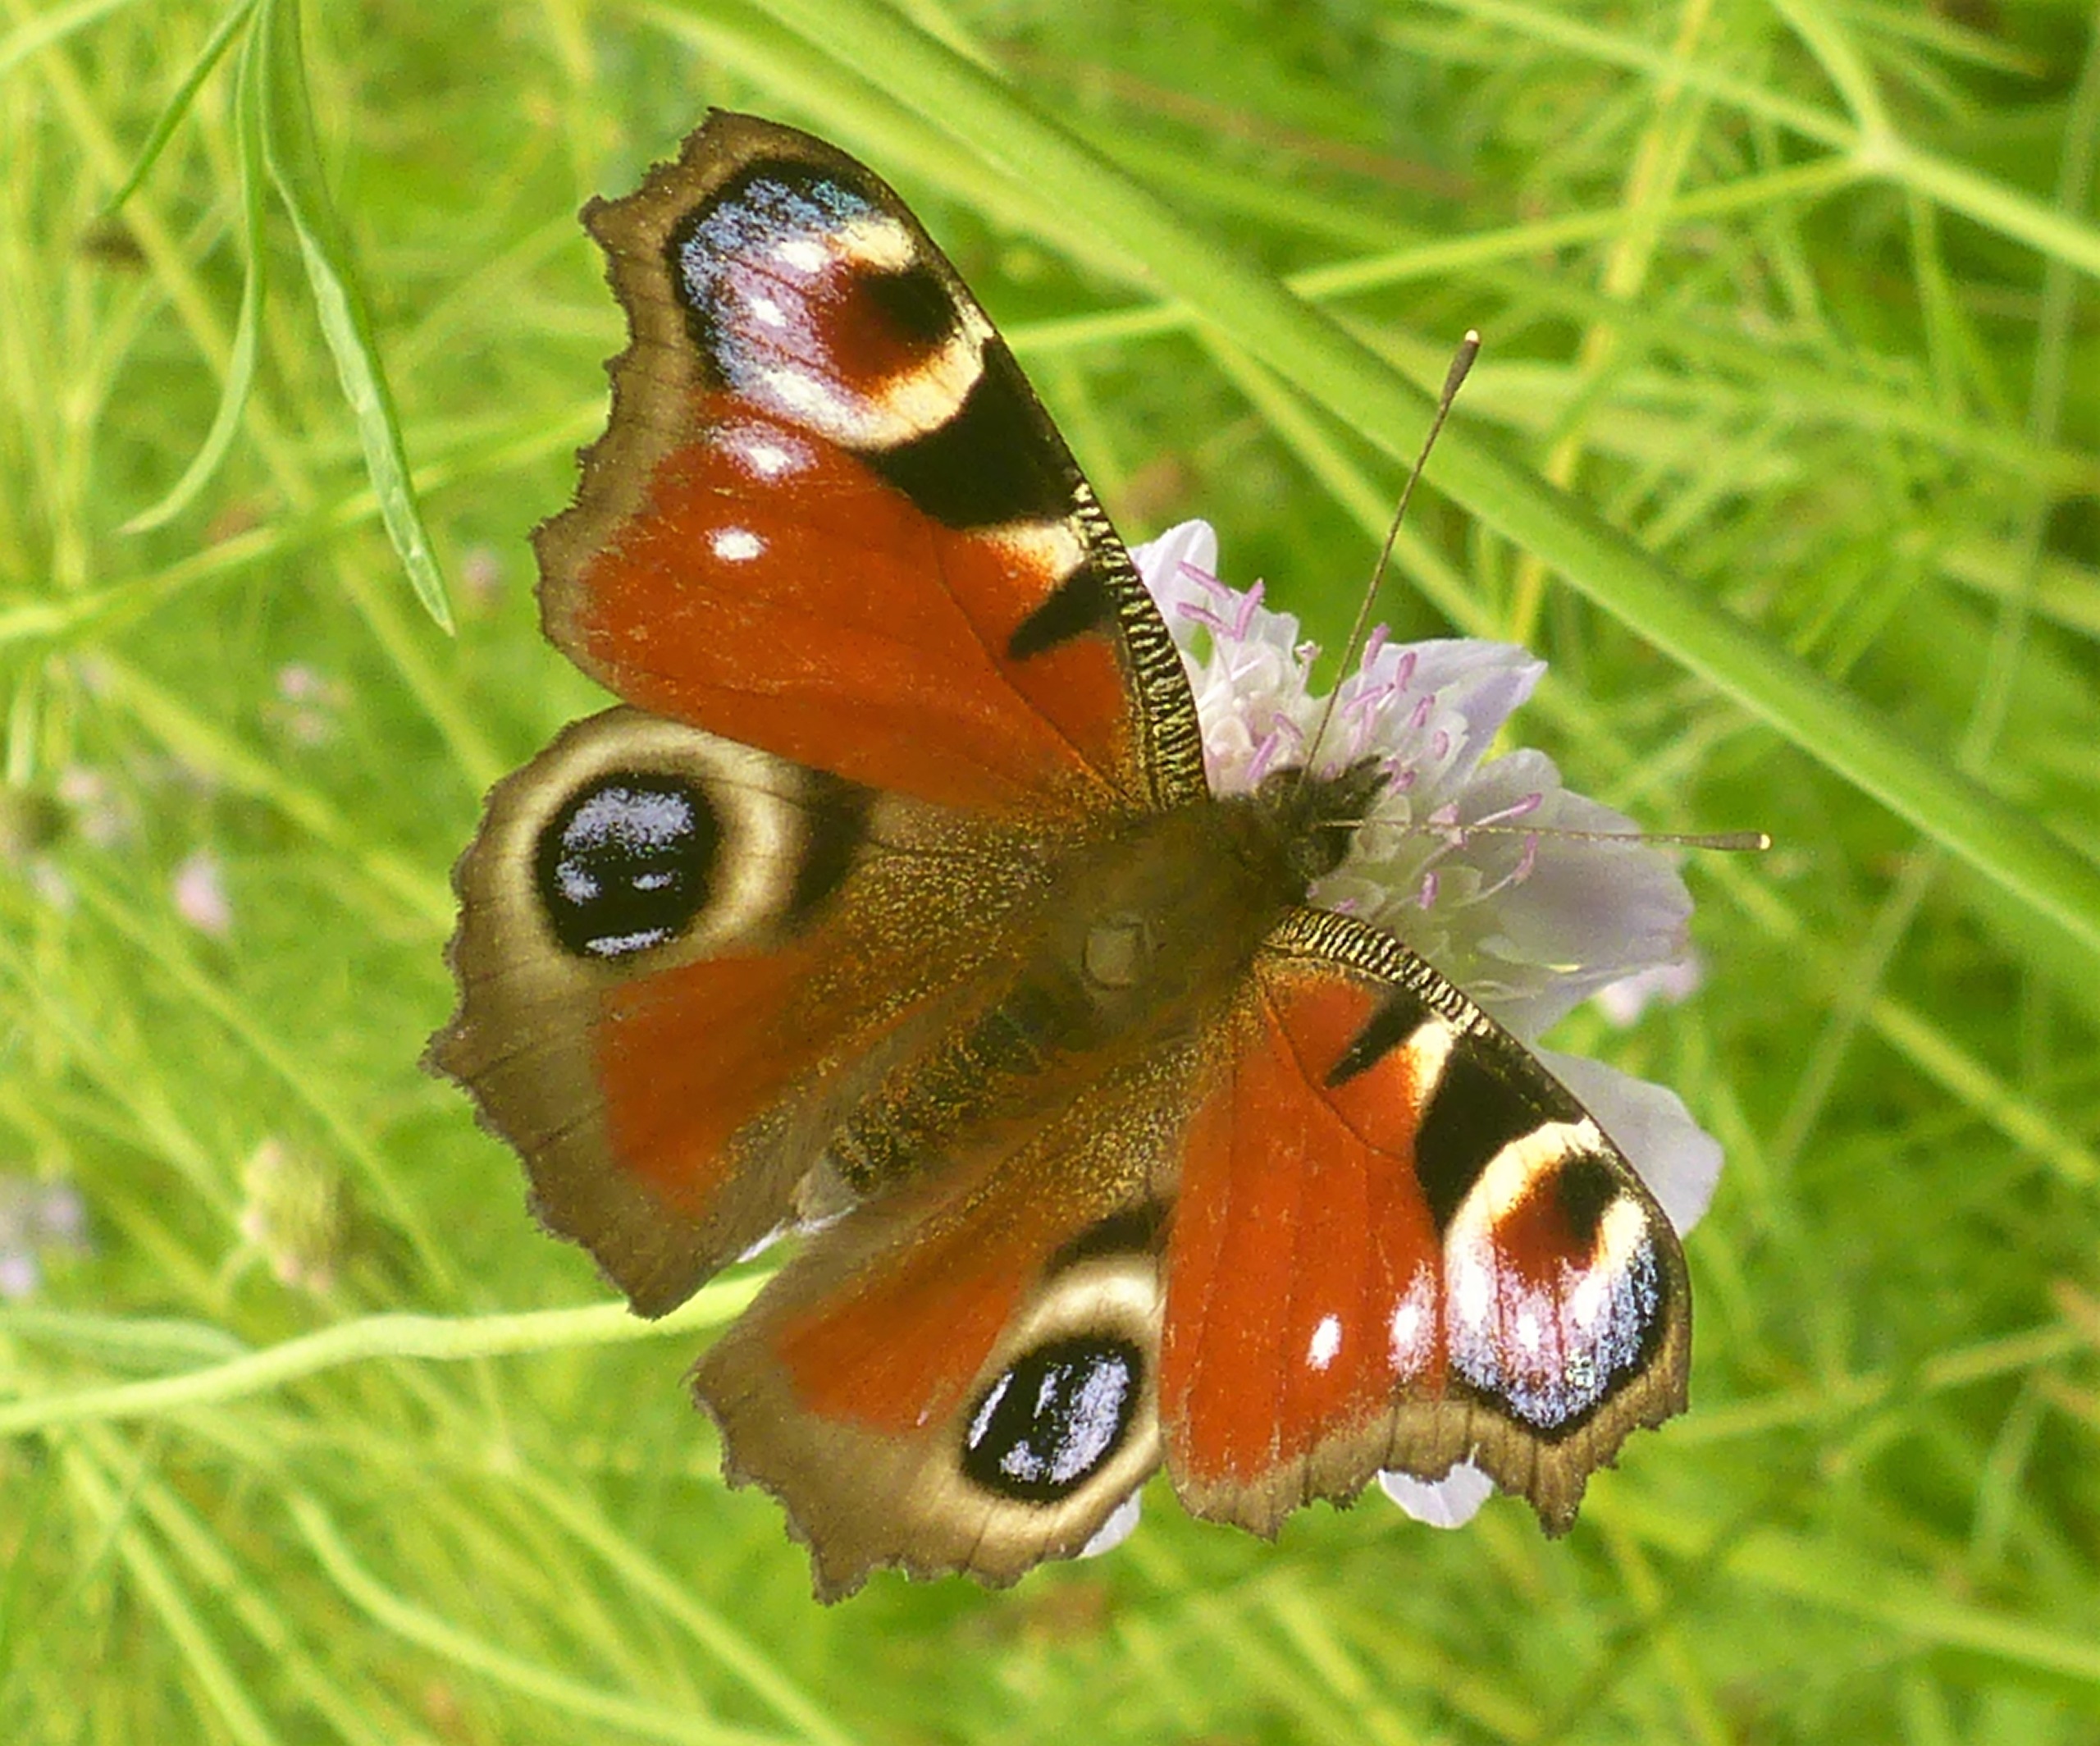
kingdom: Animalia
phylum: Arthropoda
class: Insecta
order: Lepidoptera
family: Nymphalidae
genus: Aglais
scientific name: Aglais io
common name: Dagpåfugleøje
